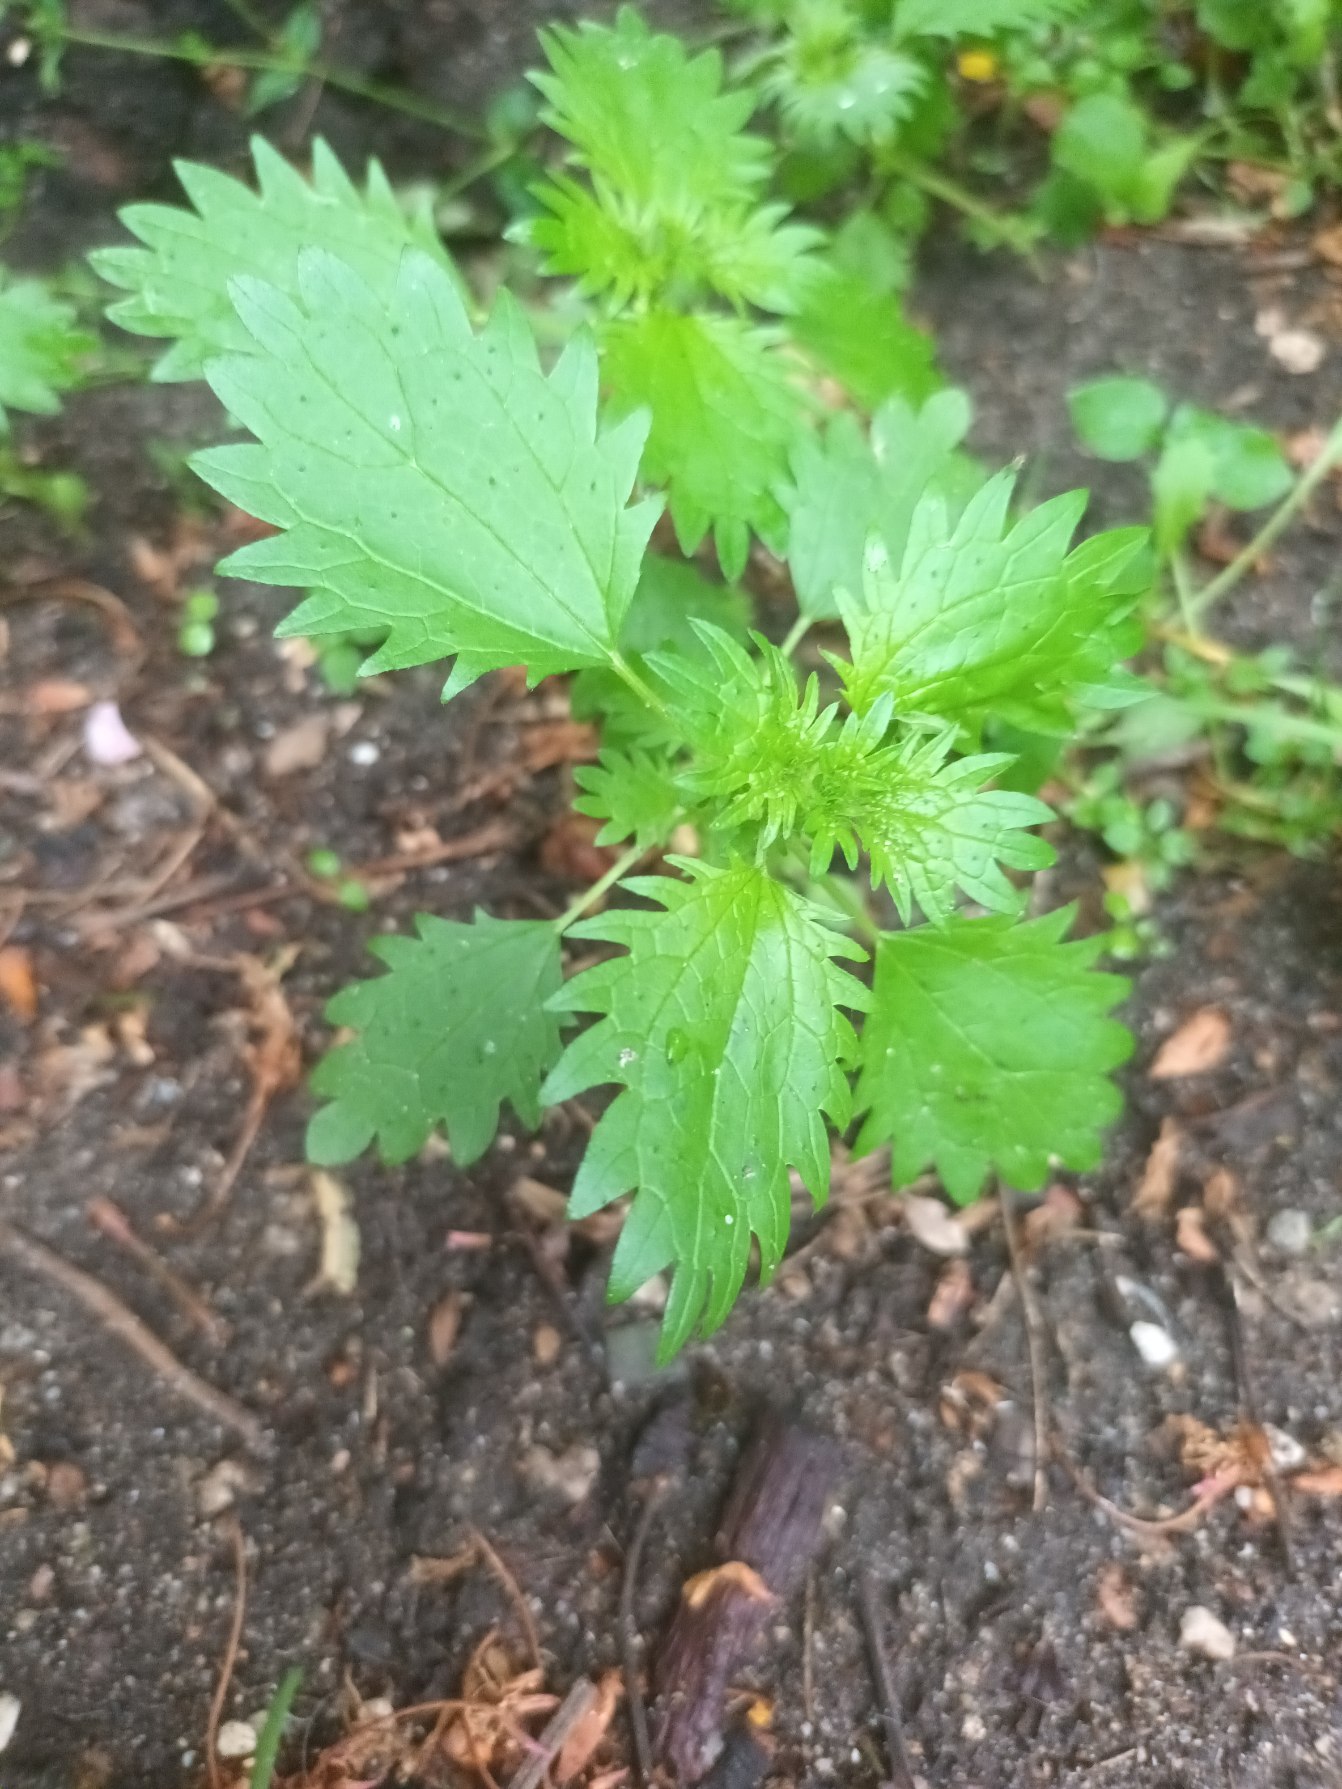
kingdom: Plantae
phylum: Tracheophyta
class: Magnoliopsida
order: Rosales
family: Urticaceae
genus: Urtica
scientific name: Urtica urens
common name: Liden nælde
